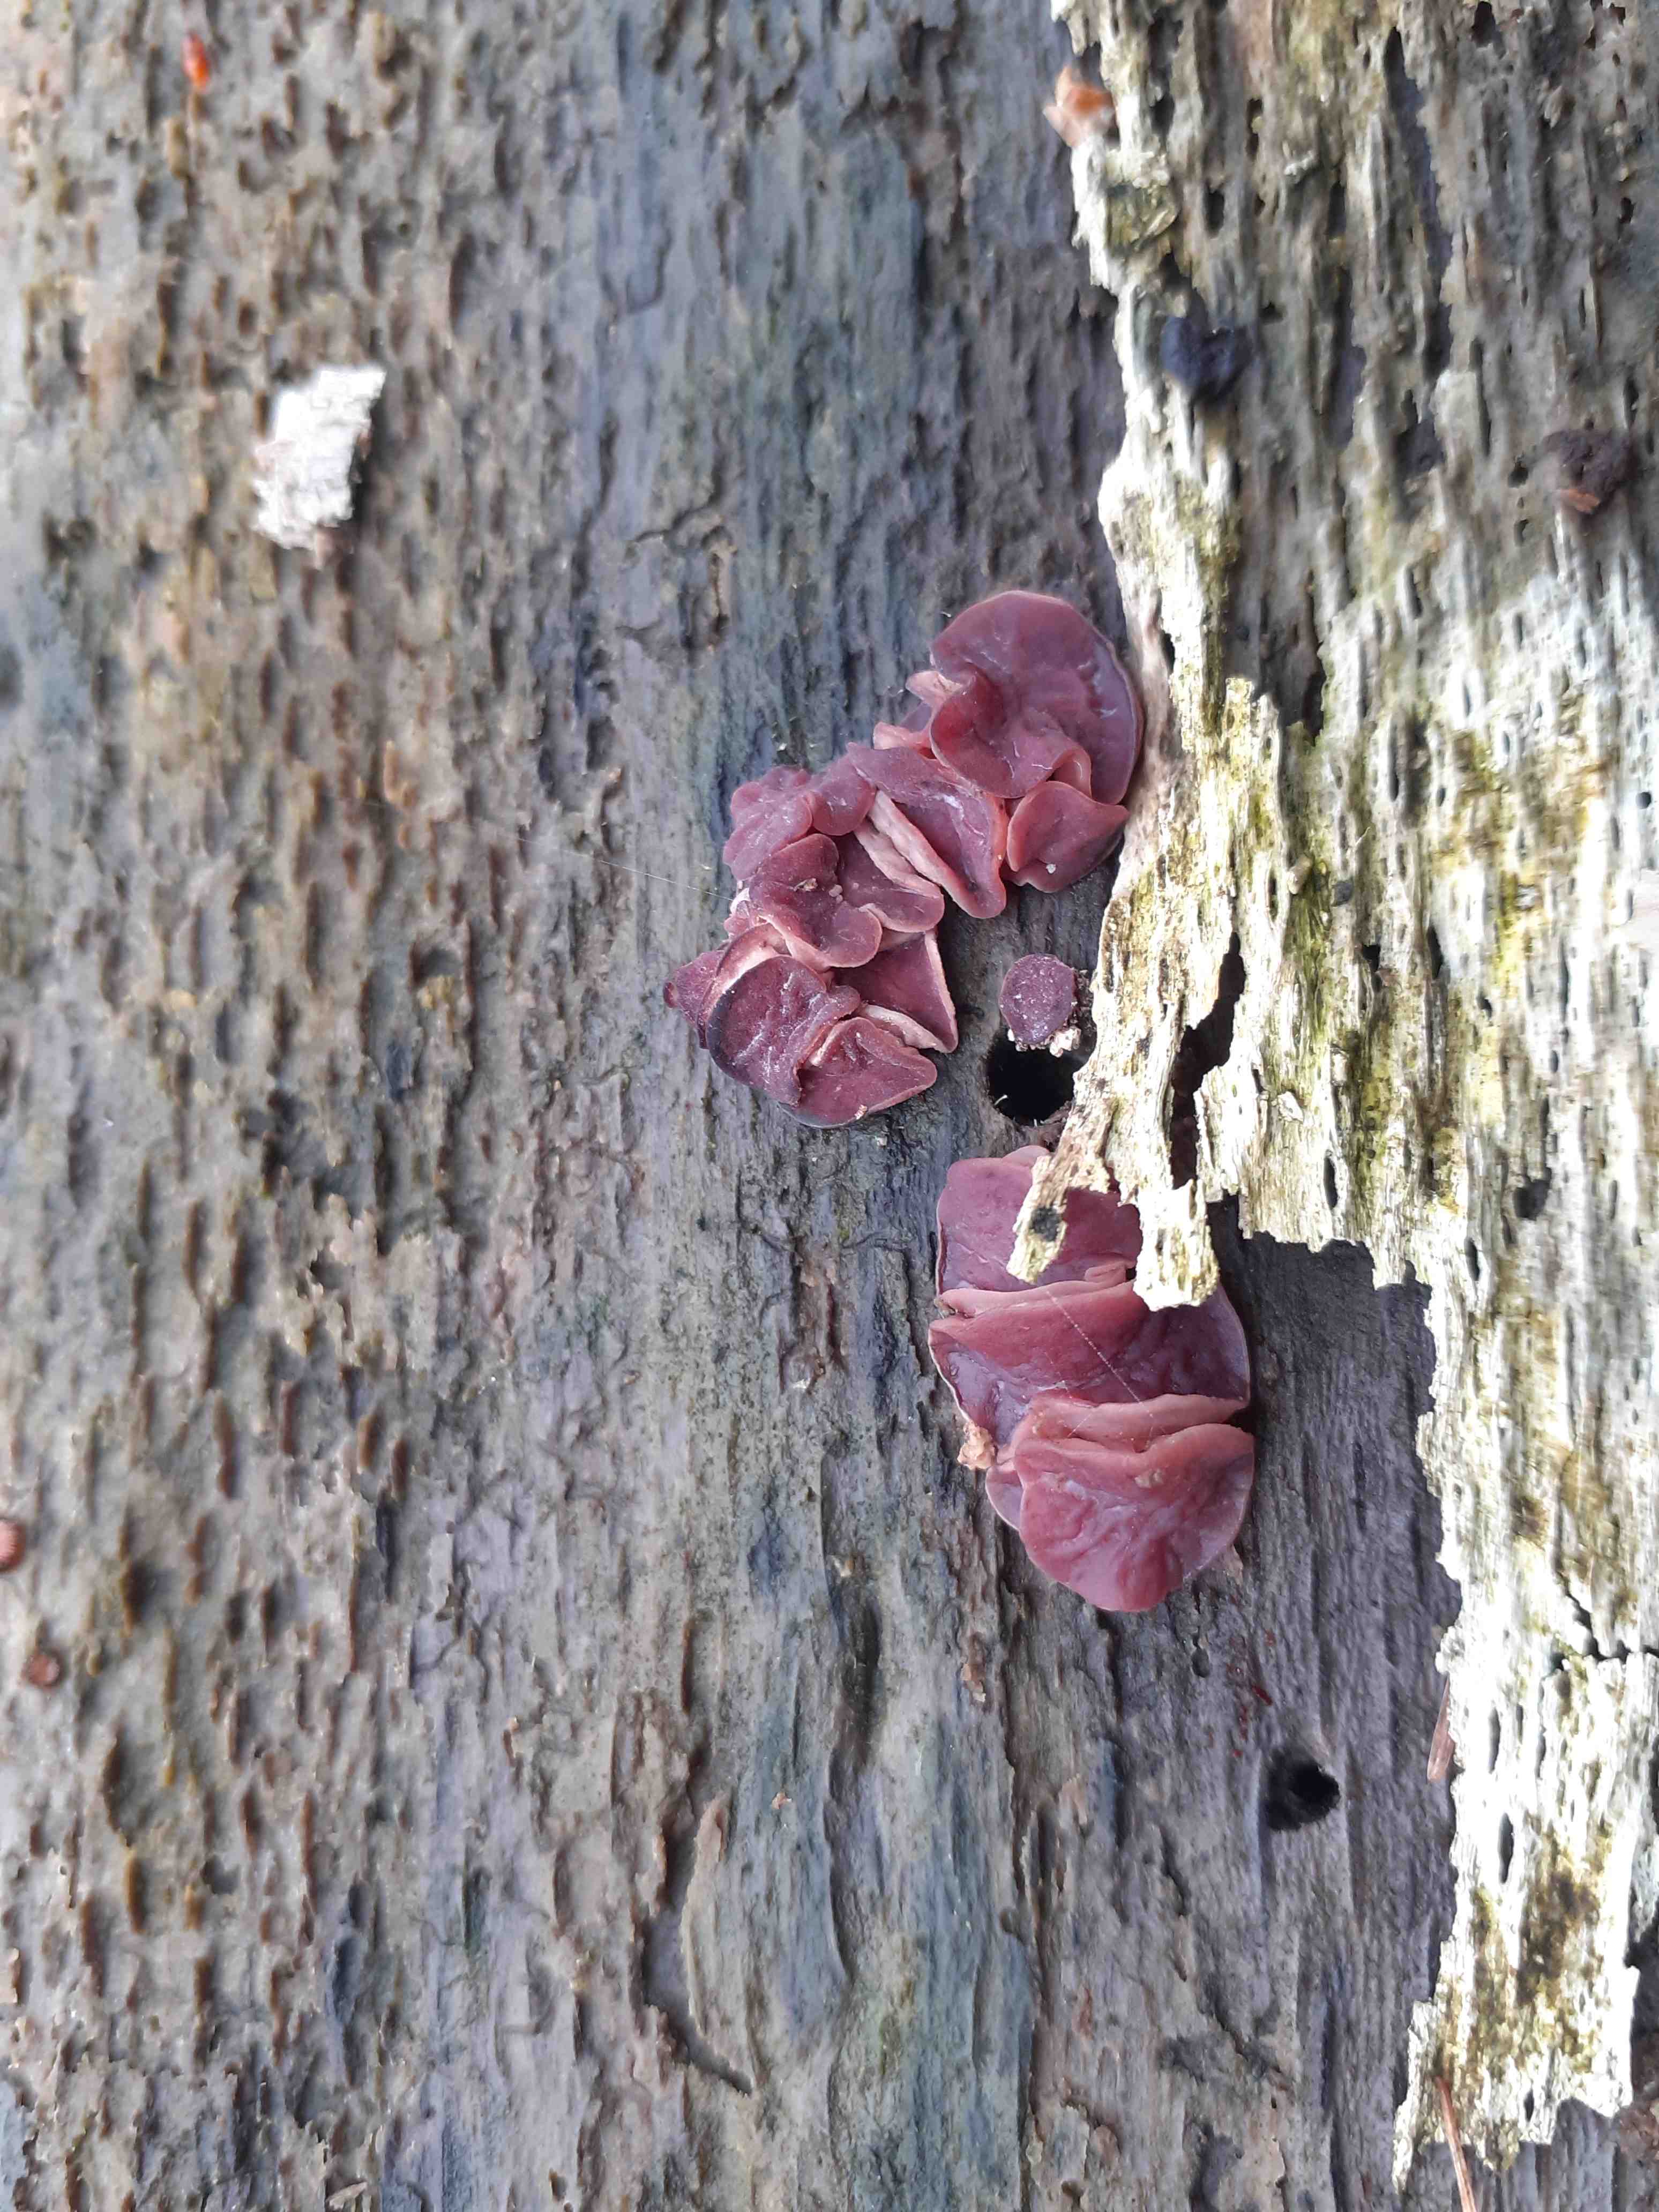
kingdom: Fungi
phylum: Ascomycota
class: Leotiomycetes
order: Helotiales
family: Gelatinodiscaceae
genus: Ascocoryne
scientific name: Ascocoryne cylichnium
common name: stor sejskive
